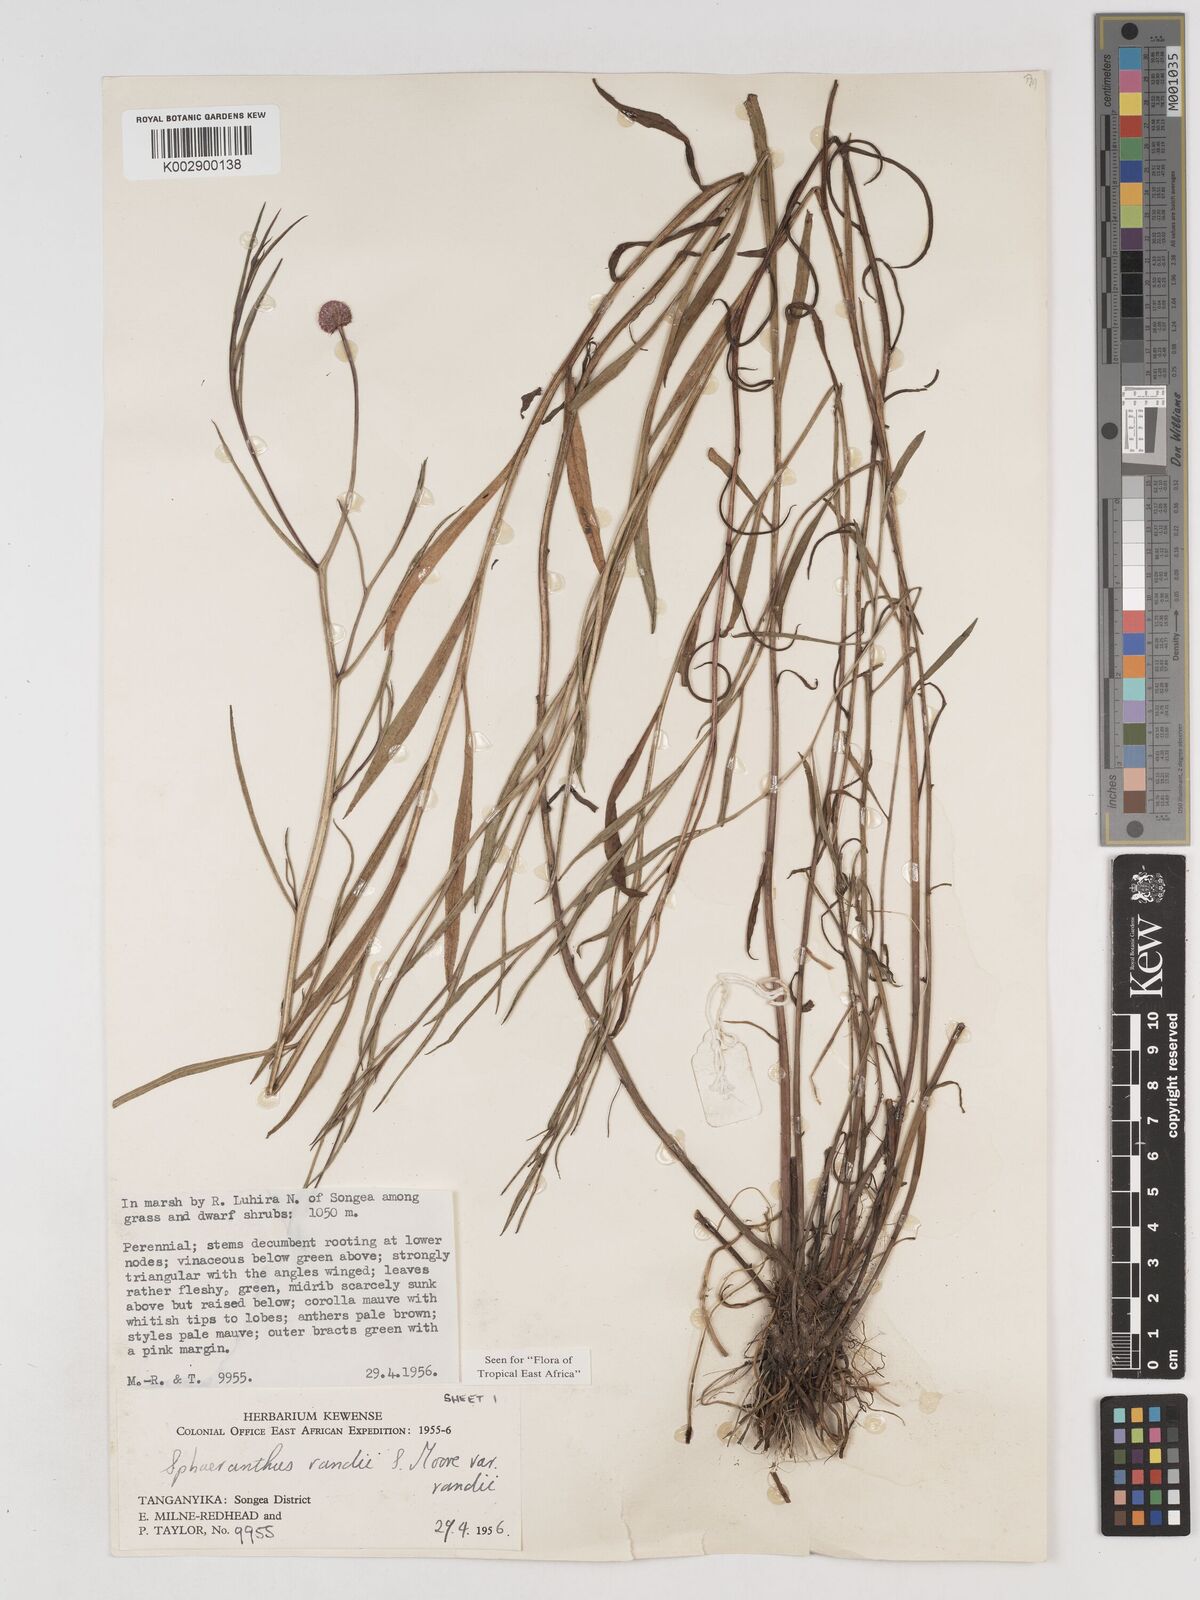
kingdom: Plantae
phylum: Tracheophyta
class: Magnoliopsida
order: Asterales
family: Asteraceae
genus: Sphaeranthus
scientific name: Sphaeranthus randii
